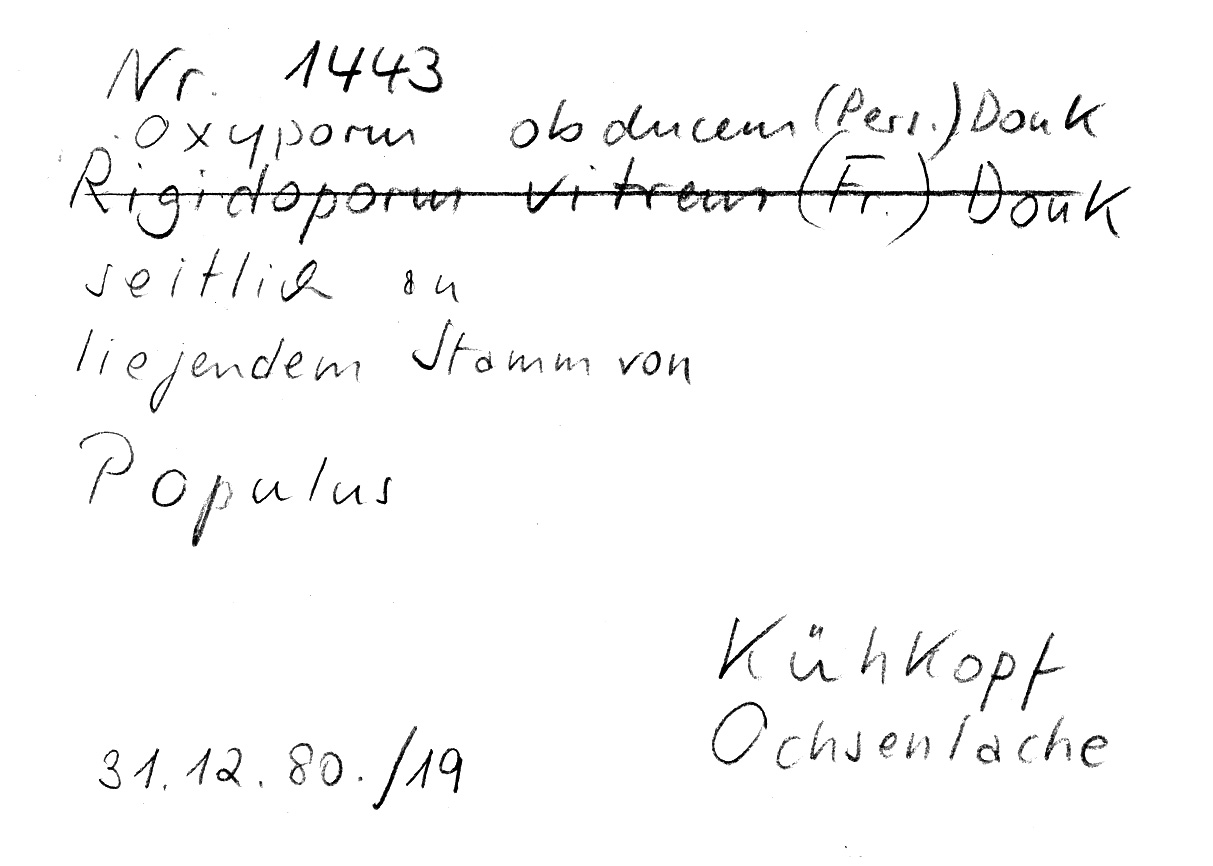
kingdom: Plantae
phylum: Tracheophyta
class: Magnoliopsida
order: Malpighiales
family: Salicaceae
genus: Populus
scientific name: Populus
